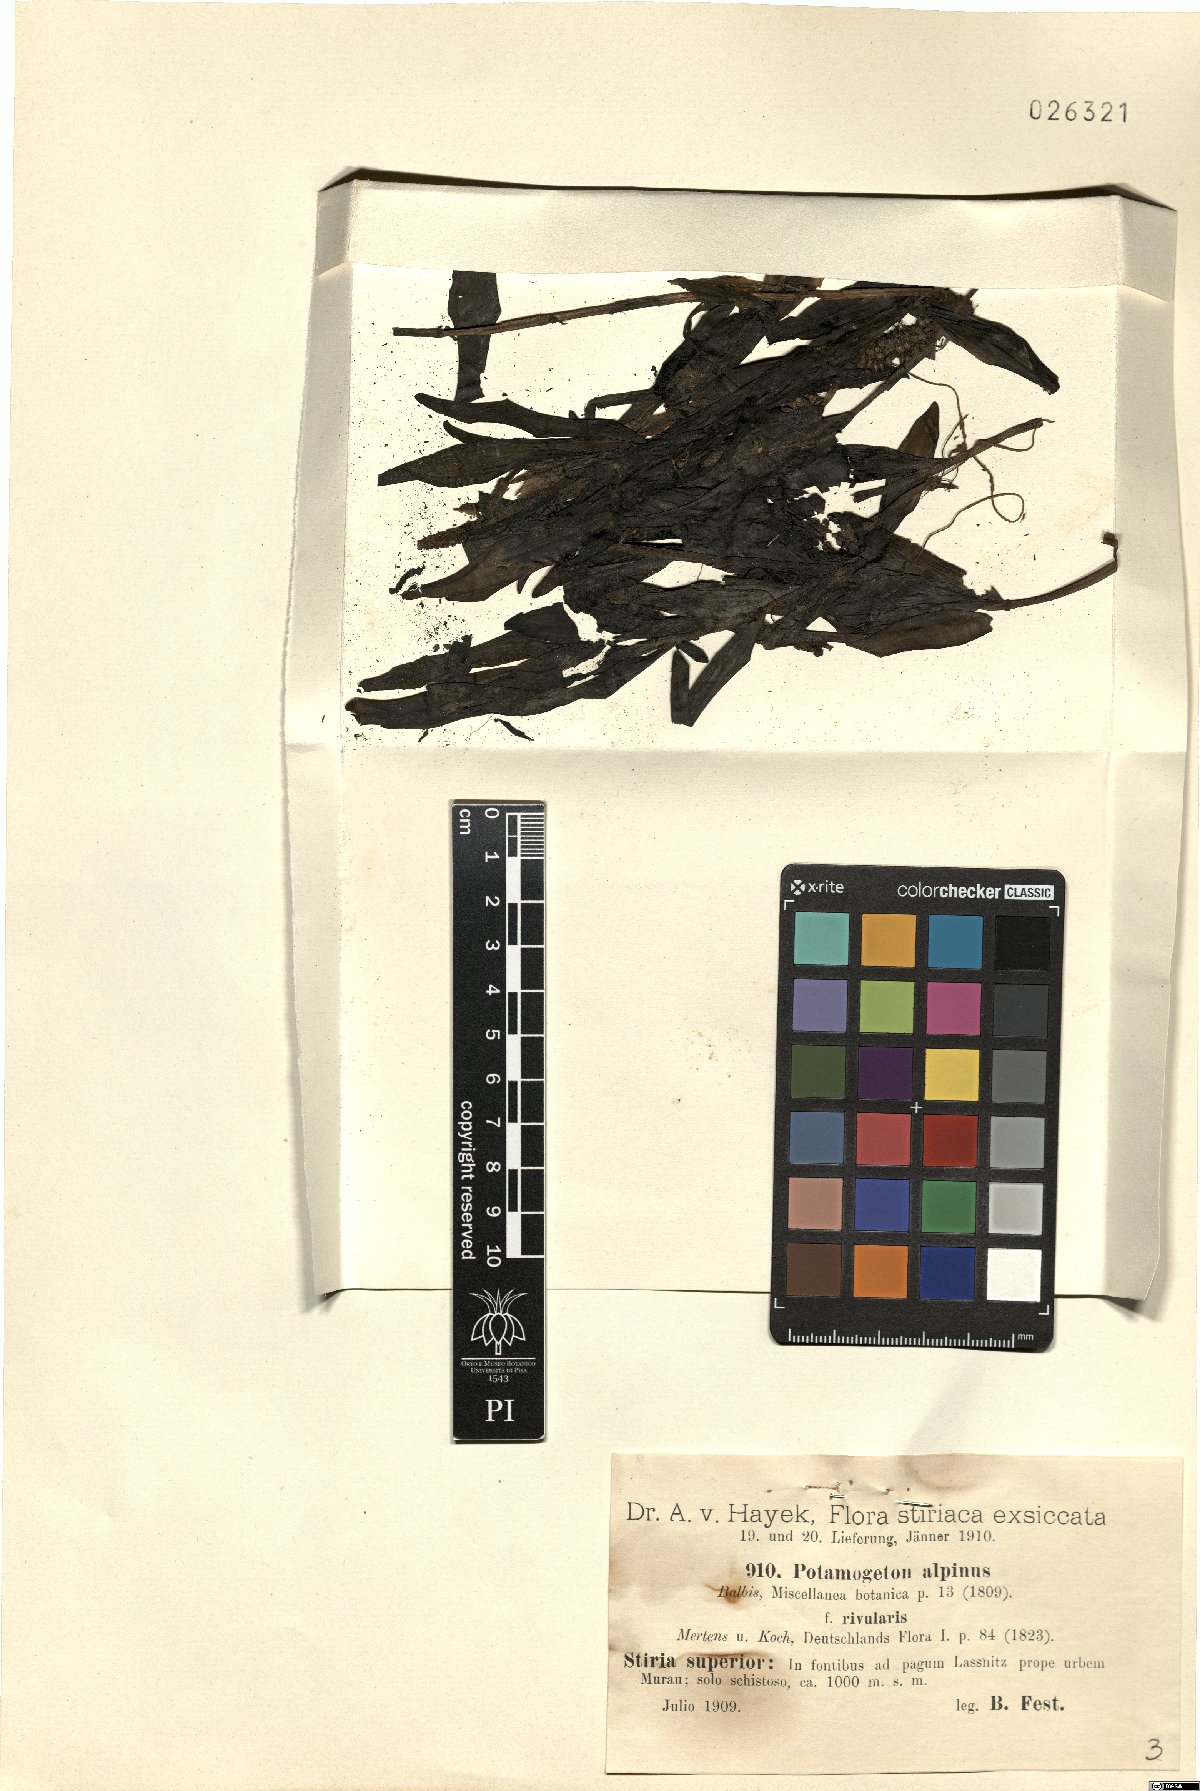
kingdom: Plantae
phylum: Tracheophyta
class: Liliopsida
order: Alismatales
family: Potamogetonaceae
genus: Potamogeton
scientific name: Potamogeton alpinus
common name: Red pondweed
